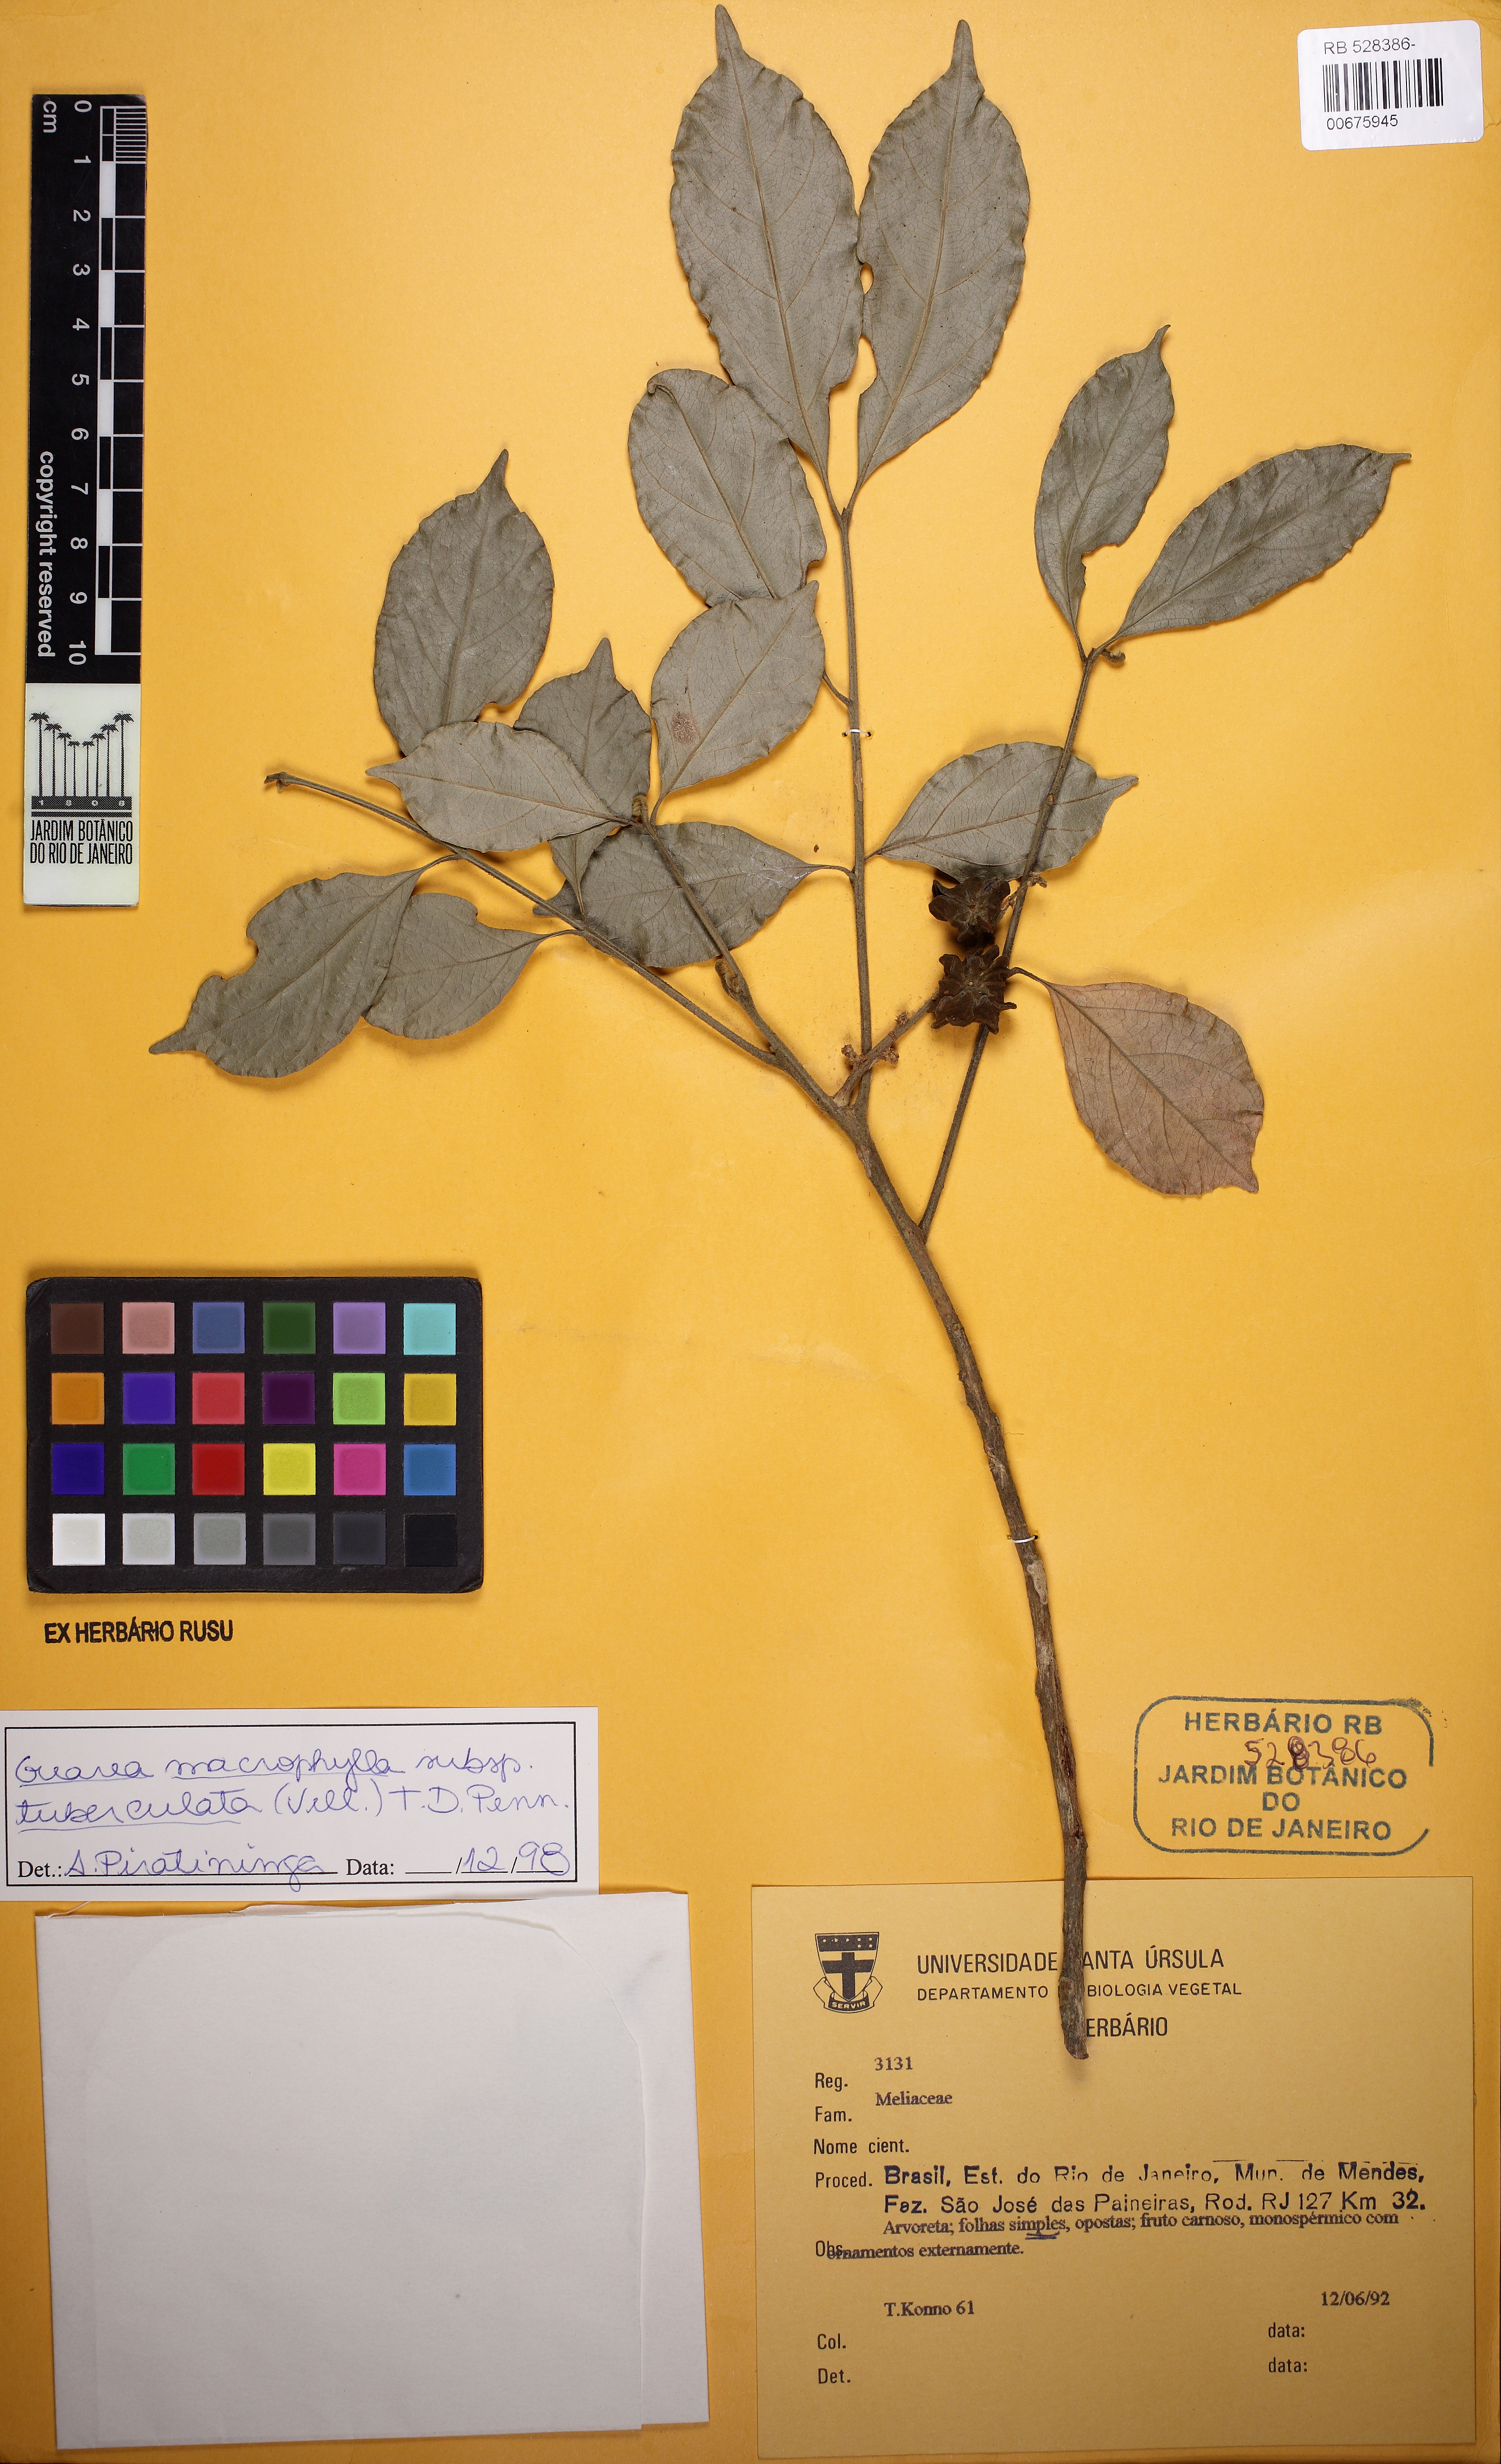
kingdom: Plantae
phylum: Tracheophyta
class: Magnoliopsida
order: Sapindales
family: Meliaceae
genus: Guarea
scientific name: Guarea macrophylla
